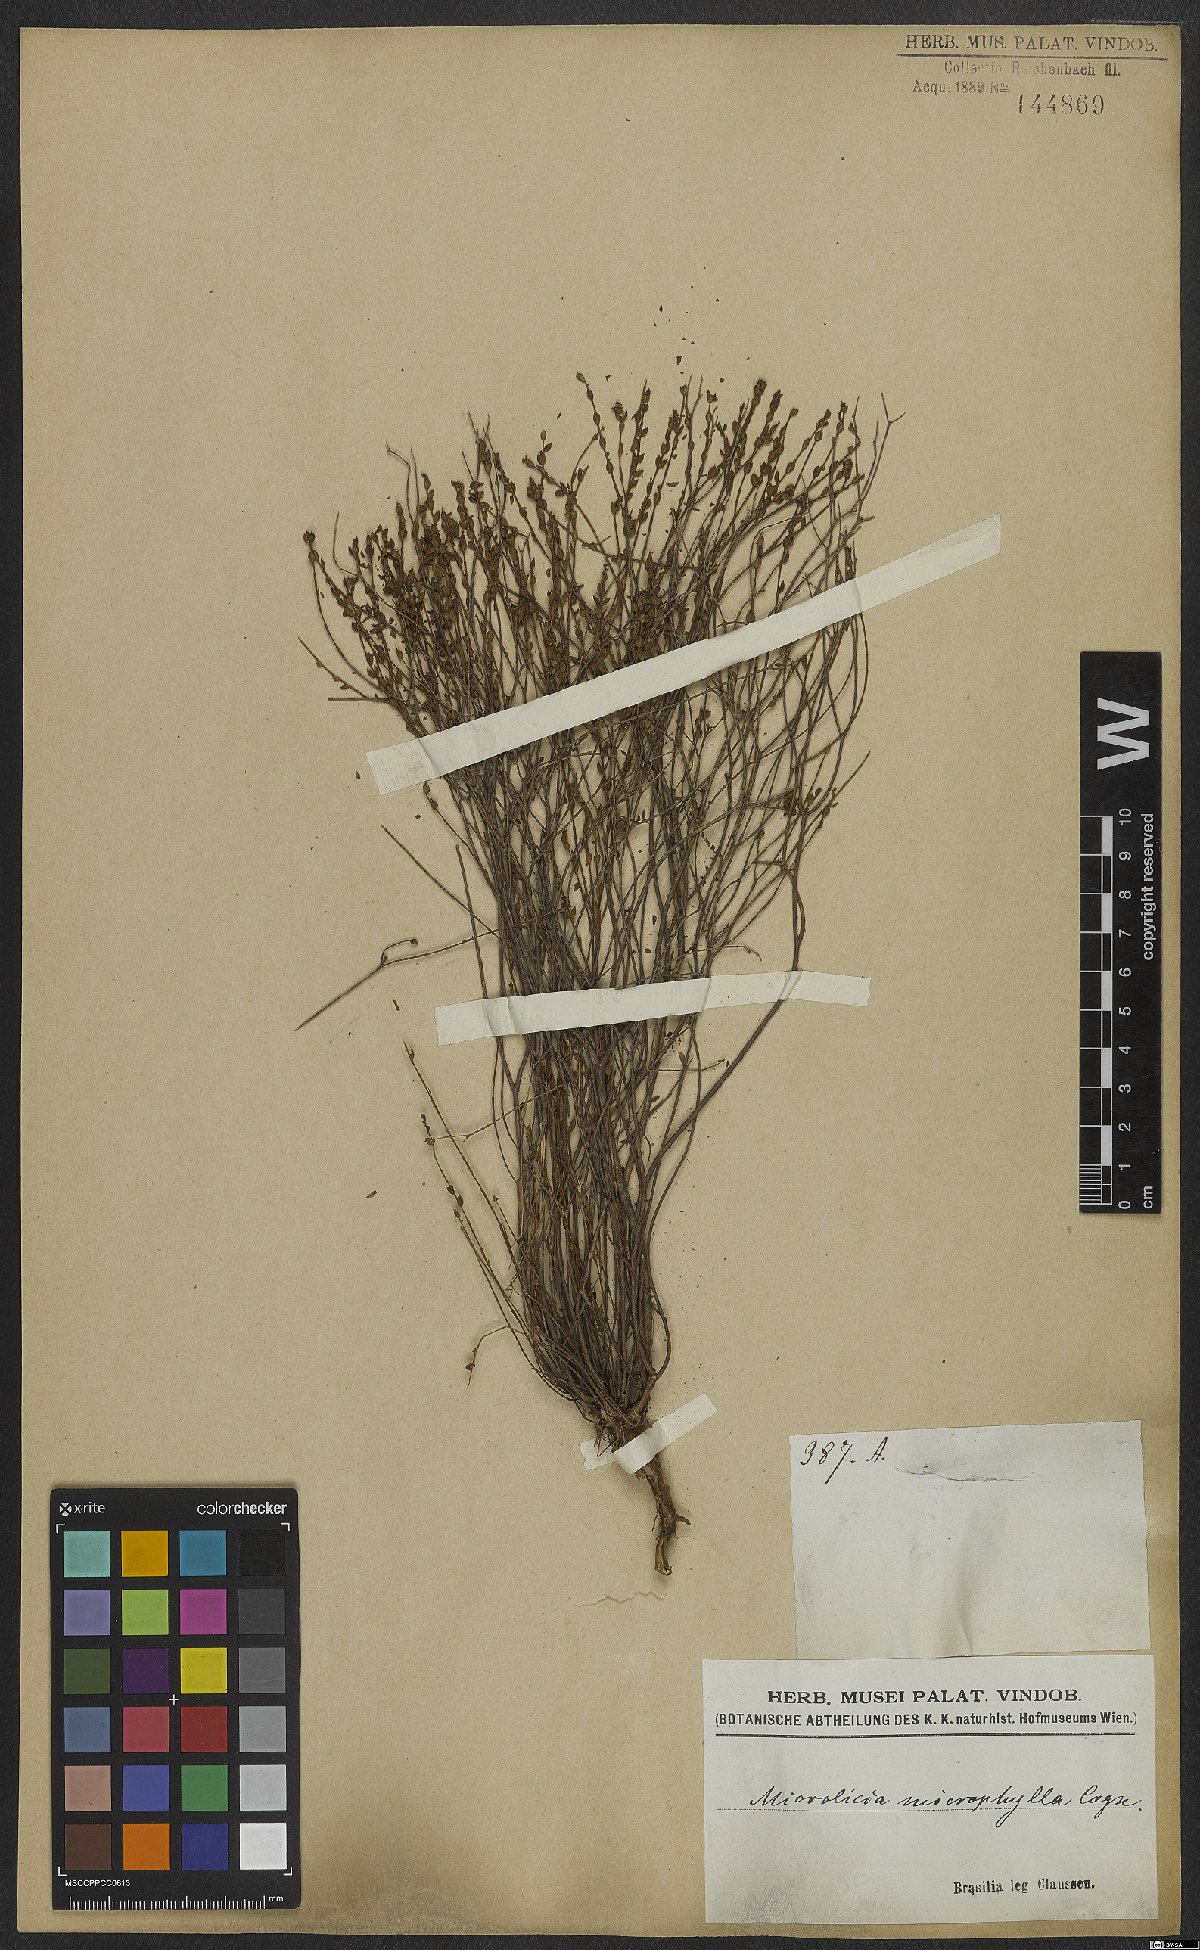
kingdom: Plantae
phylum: Tracheophyta
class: Magnoliopsida
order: Myrtales
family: Melastomataceae
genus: Microlicia
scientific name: Microlicia microphylla
